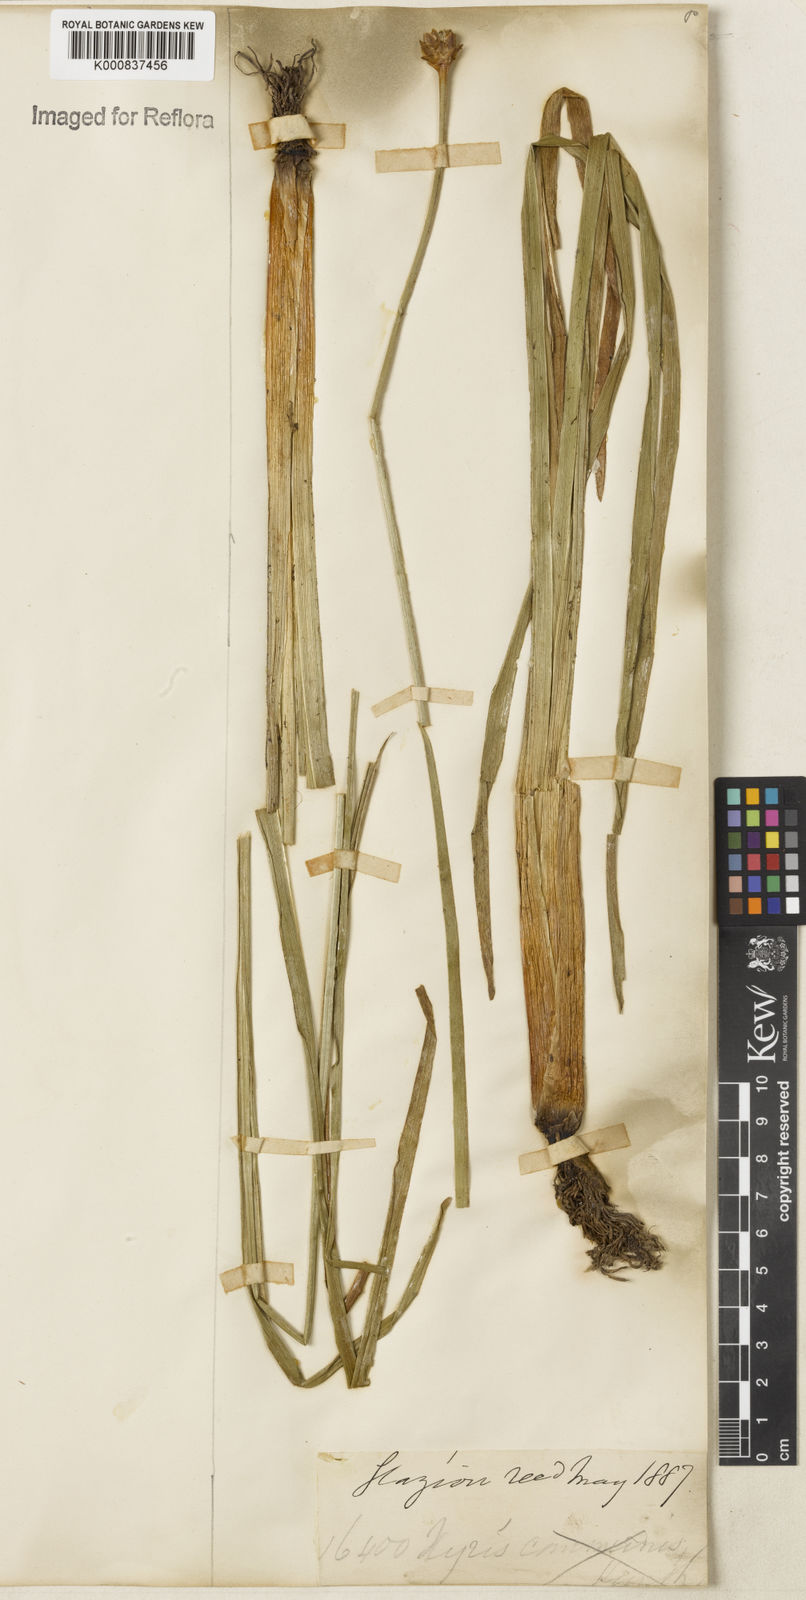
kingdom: Plantae
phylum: Tracheophyta
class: Liliopsida
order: Poales
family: Xyridaceae
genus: Xyris
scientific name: Xyris jupicai
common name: Richard's yelloweyed grass
